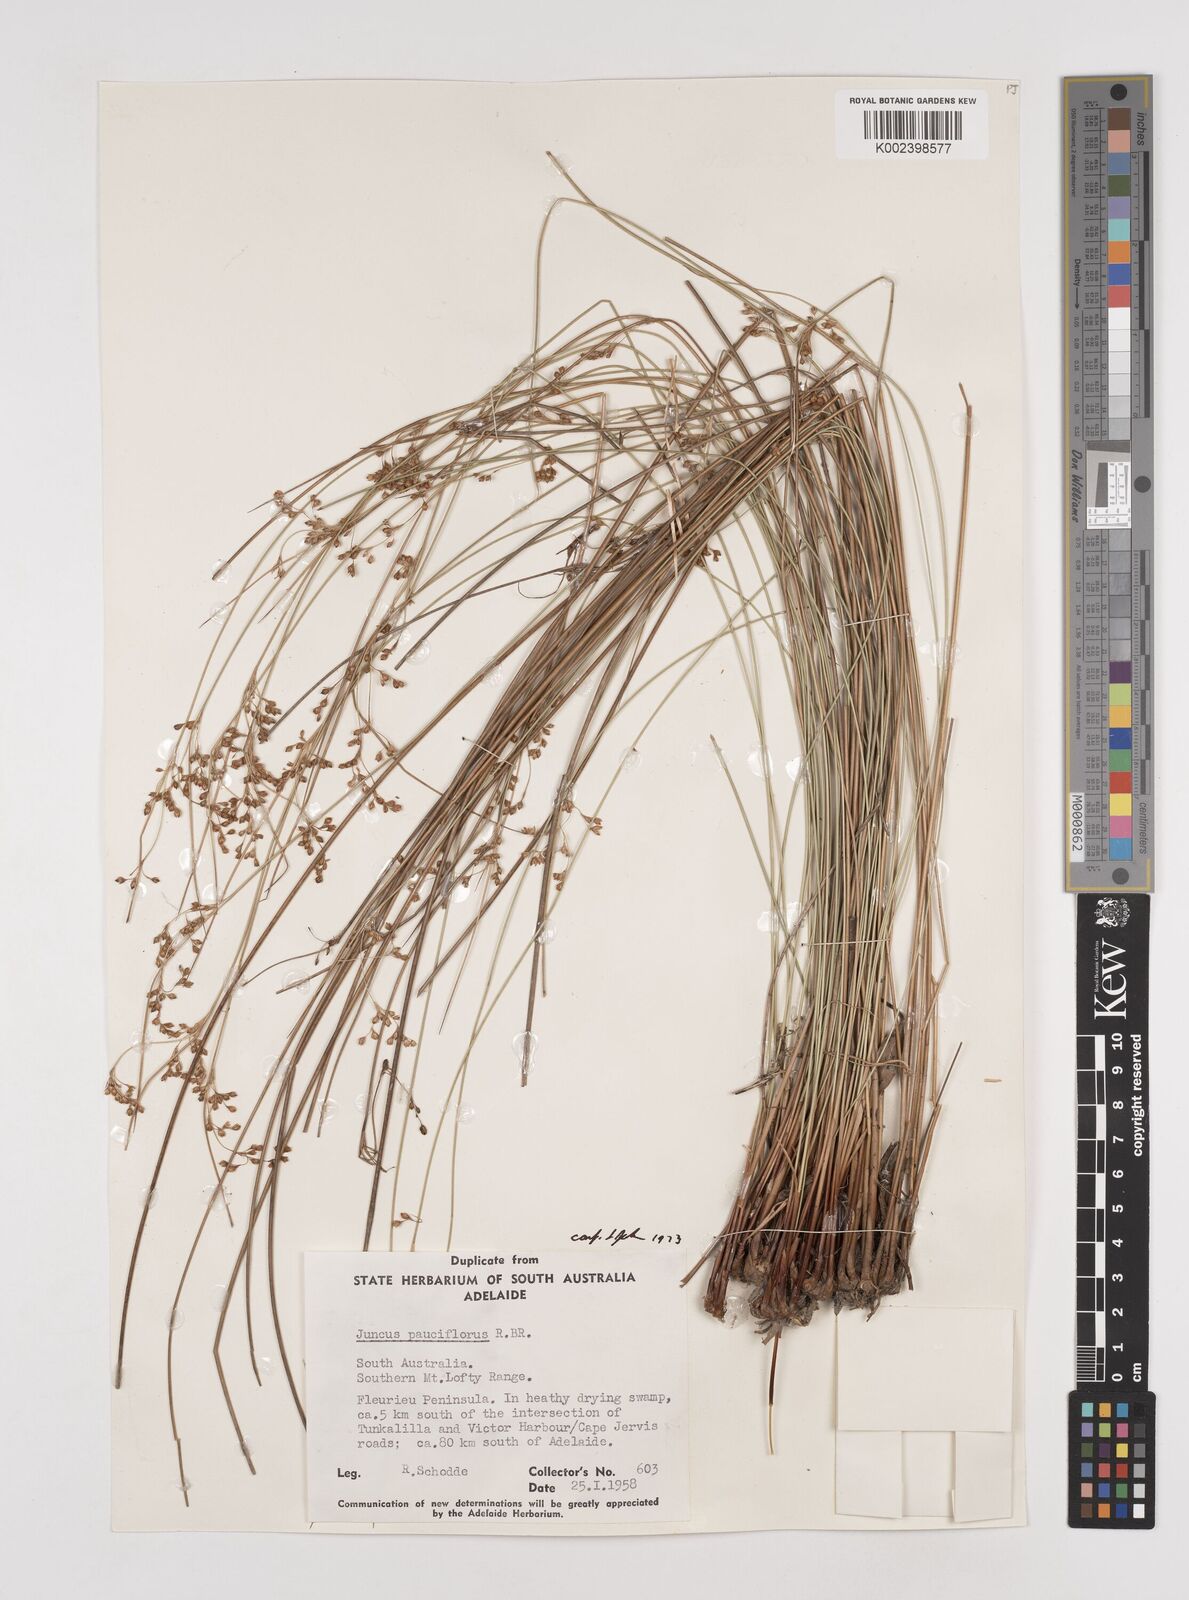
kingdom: Plantae
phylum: Tracheophyta
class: Liliopsida
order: Poales
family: Juncaceae
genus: Juncus
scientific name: Juncus pauciflorus
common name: Loose-flowered rush
